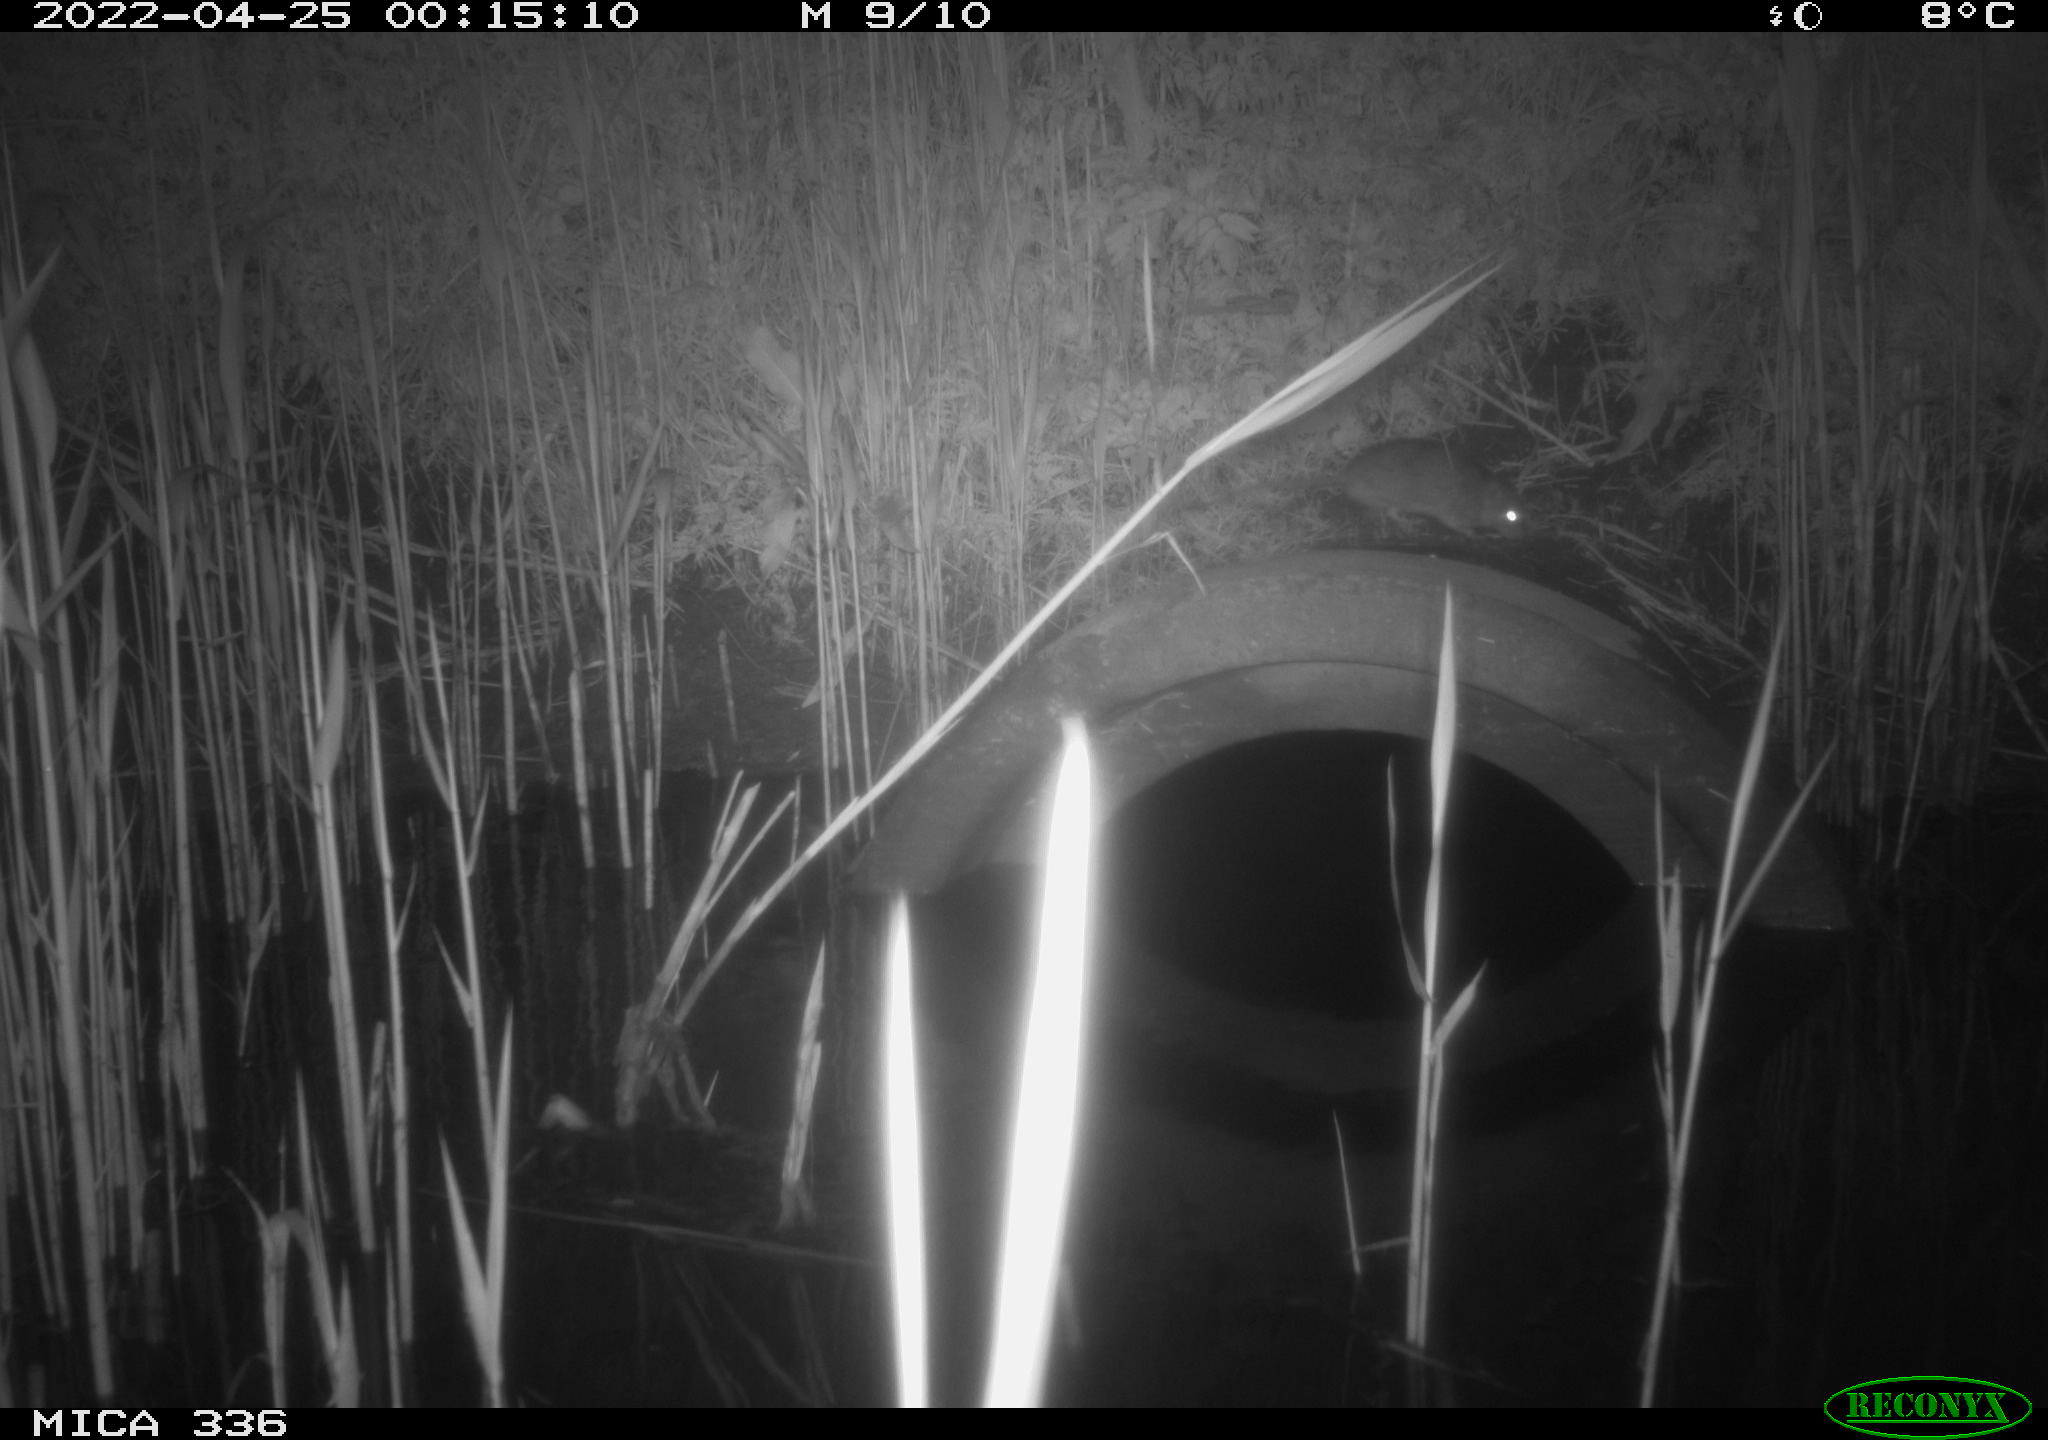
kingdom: Animalia
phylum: Chordata
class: Mammalia
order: Rodentia
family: Muridae
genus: Rattus
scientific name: Rattus norvegicus
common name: Brown rat
